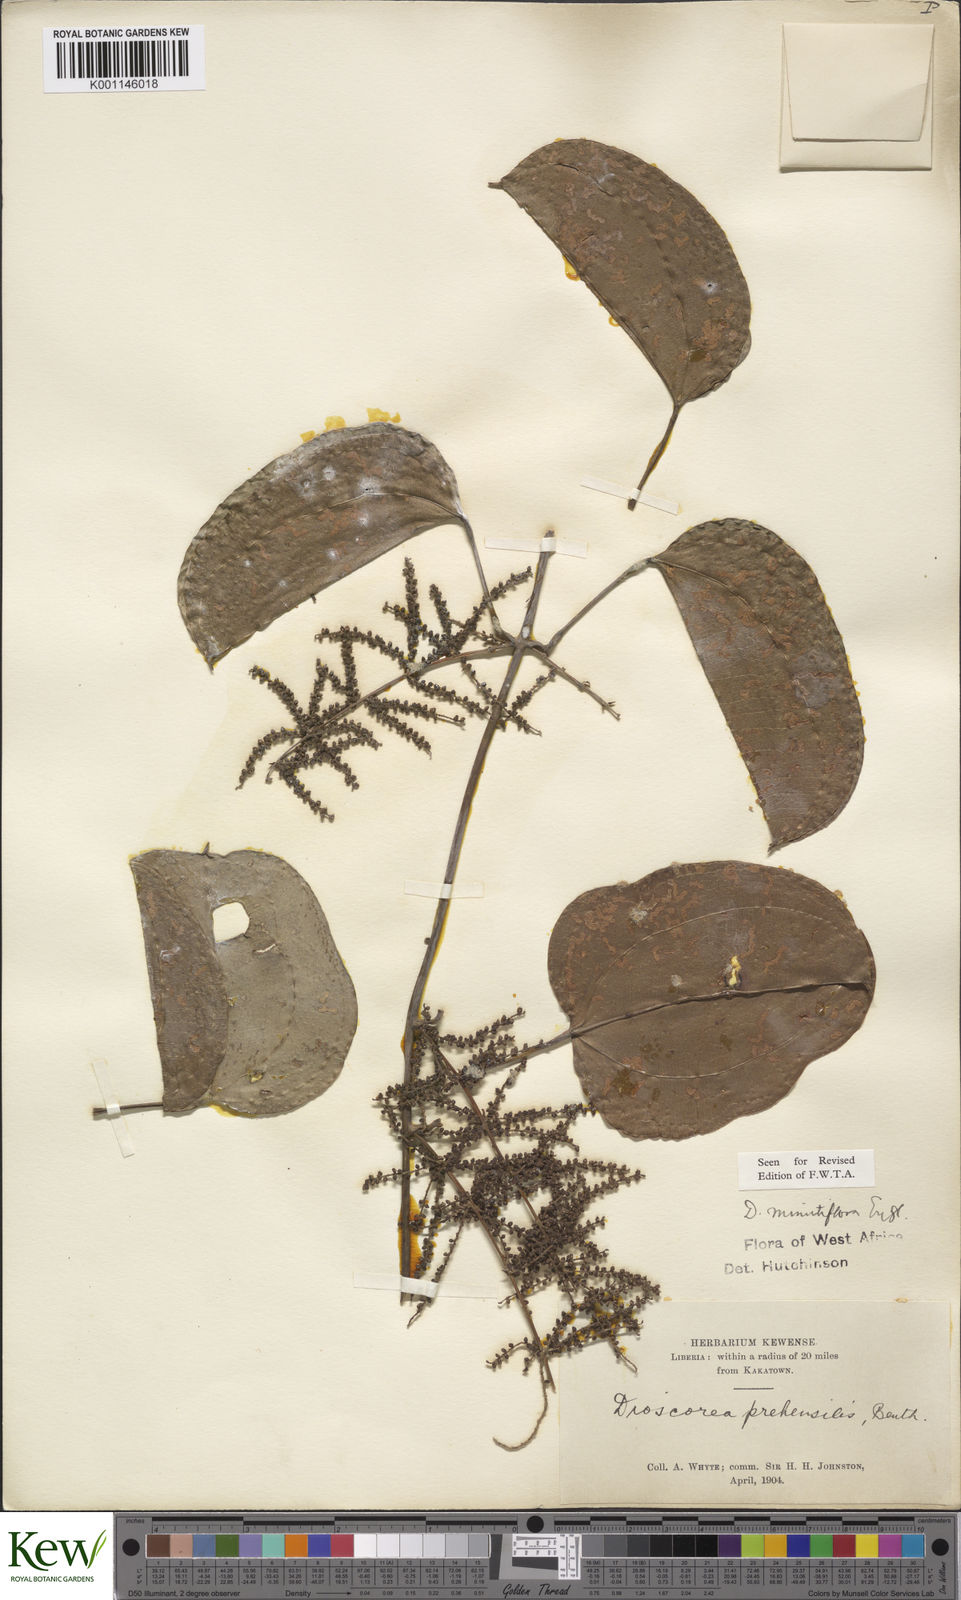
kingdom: Plantae
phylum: Tracheophyta
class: Liliopsida
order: Dioscoreales
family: Dioscoreaceae
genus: Dioscorea
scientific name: Dioscorea minutiflora
